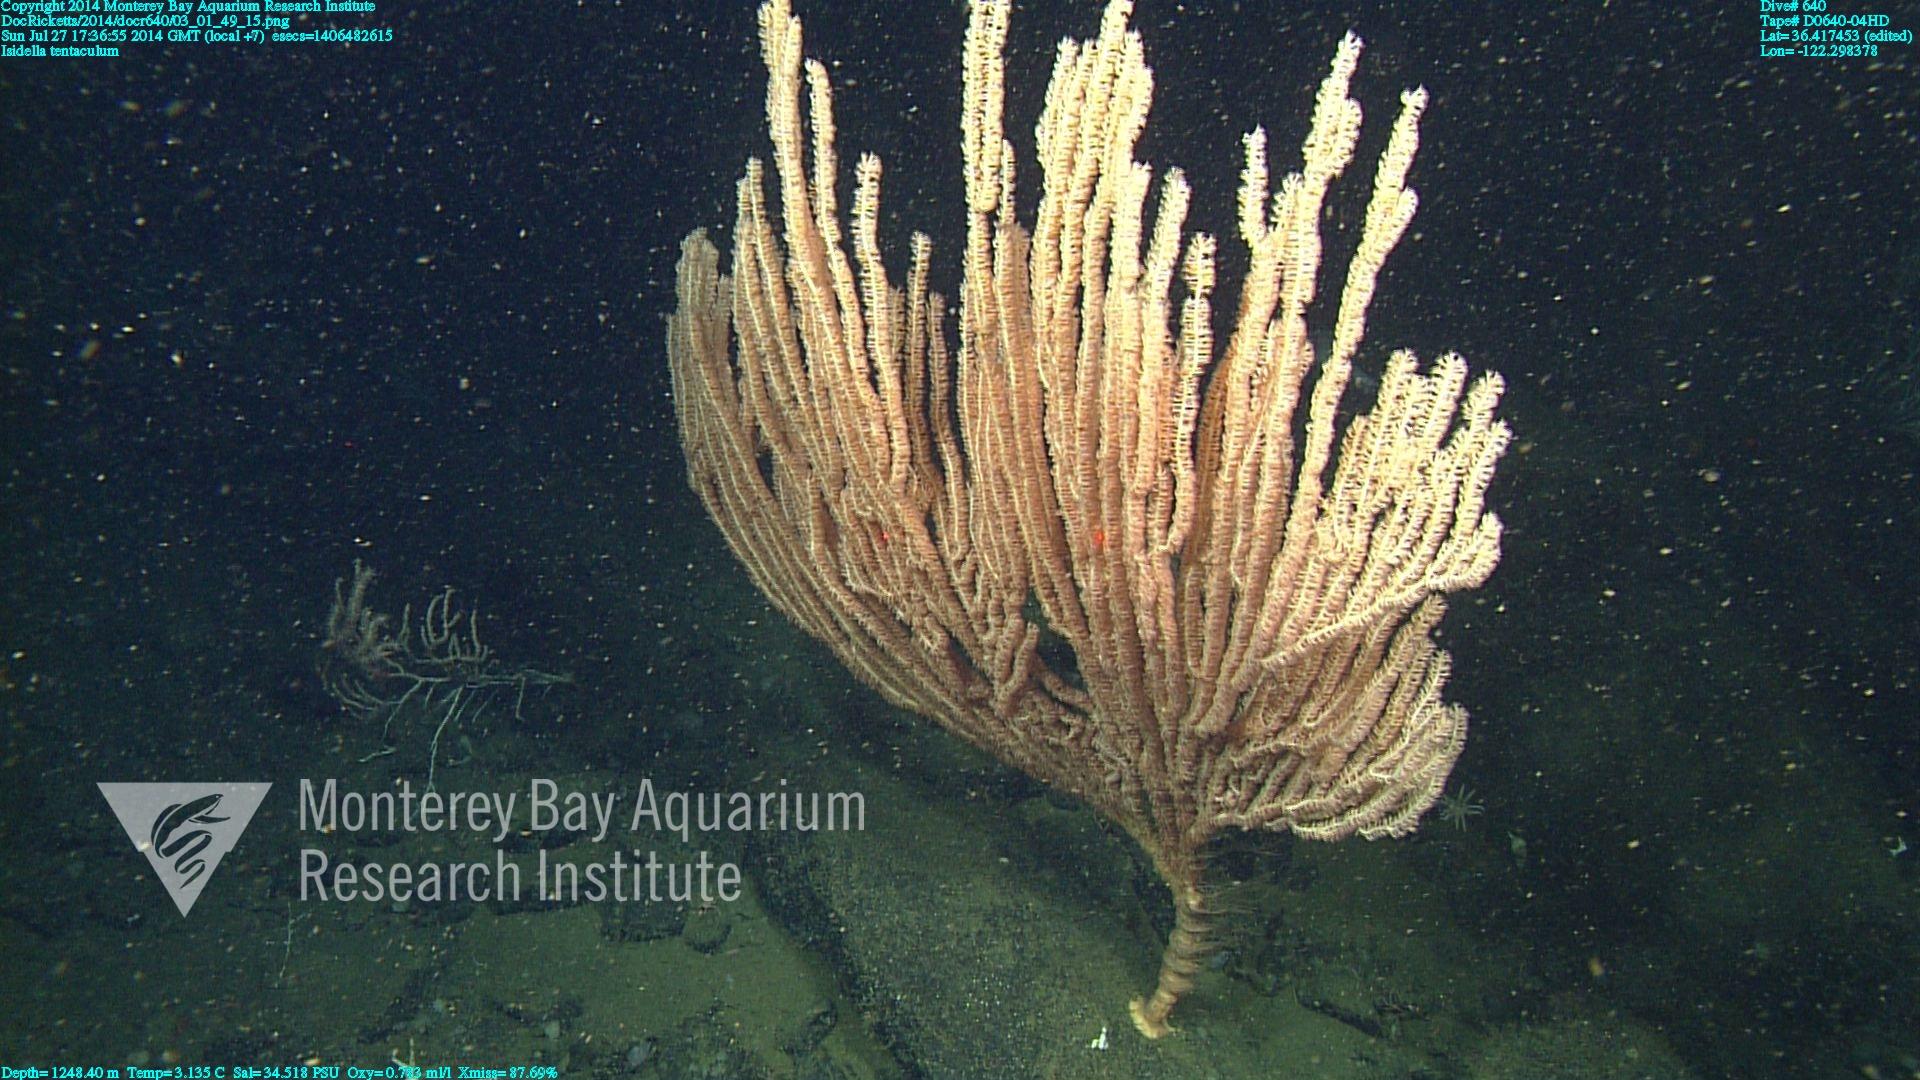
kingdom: Animalia
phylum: Cnidaria
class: Anthozoa
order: Scleralcyonacea
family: Keratoisididae
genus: Isidella
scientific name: Isidella tentaculum
